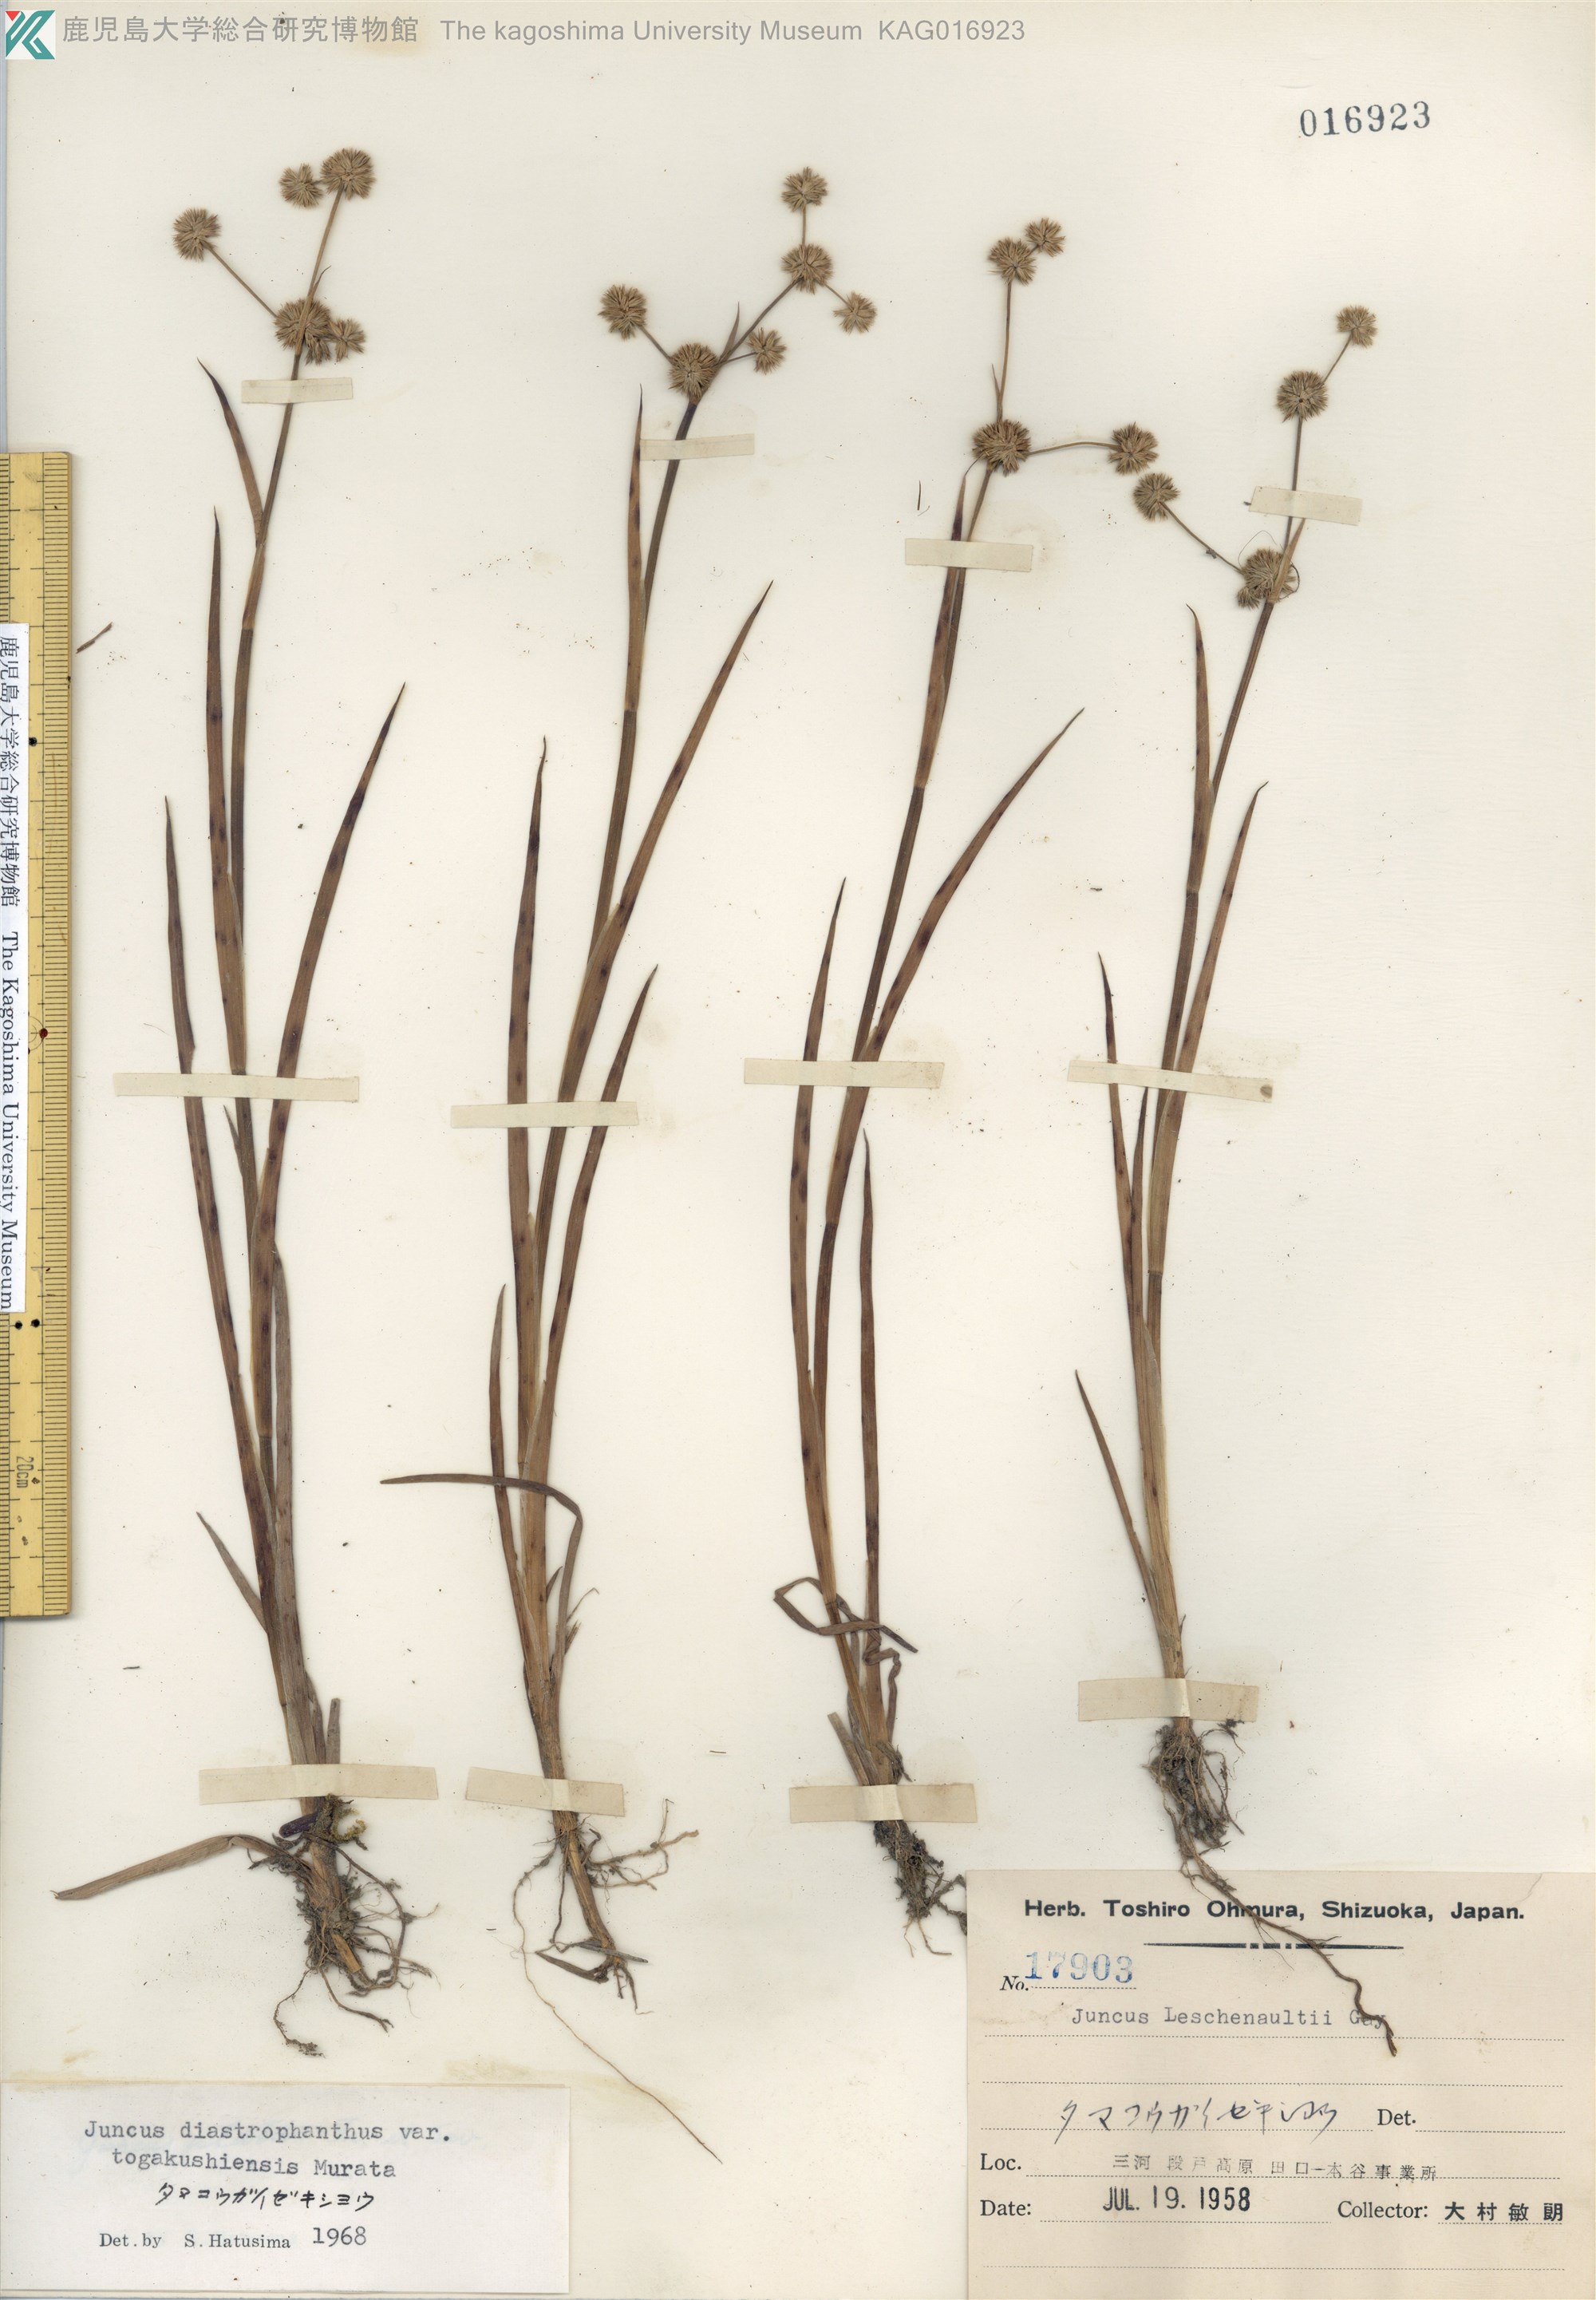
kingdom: Plantae
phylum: Tracheophyta
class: Liliopsida
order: Poales
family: Juncaceae
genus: Juncus
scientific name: Juncus diastrophanthus
